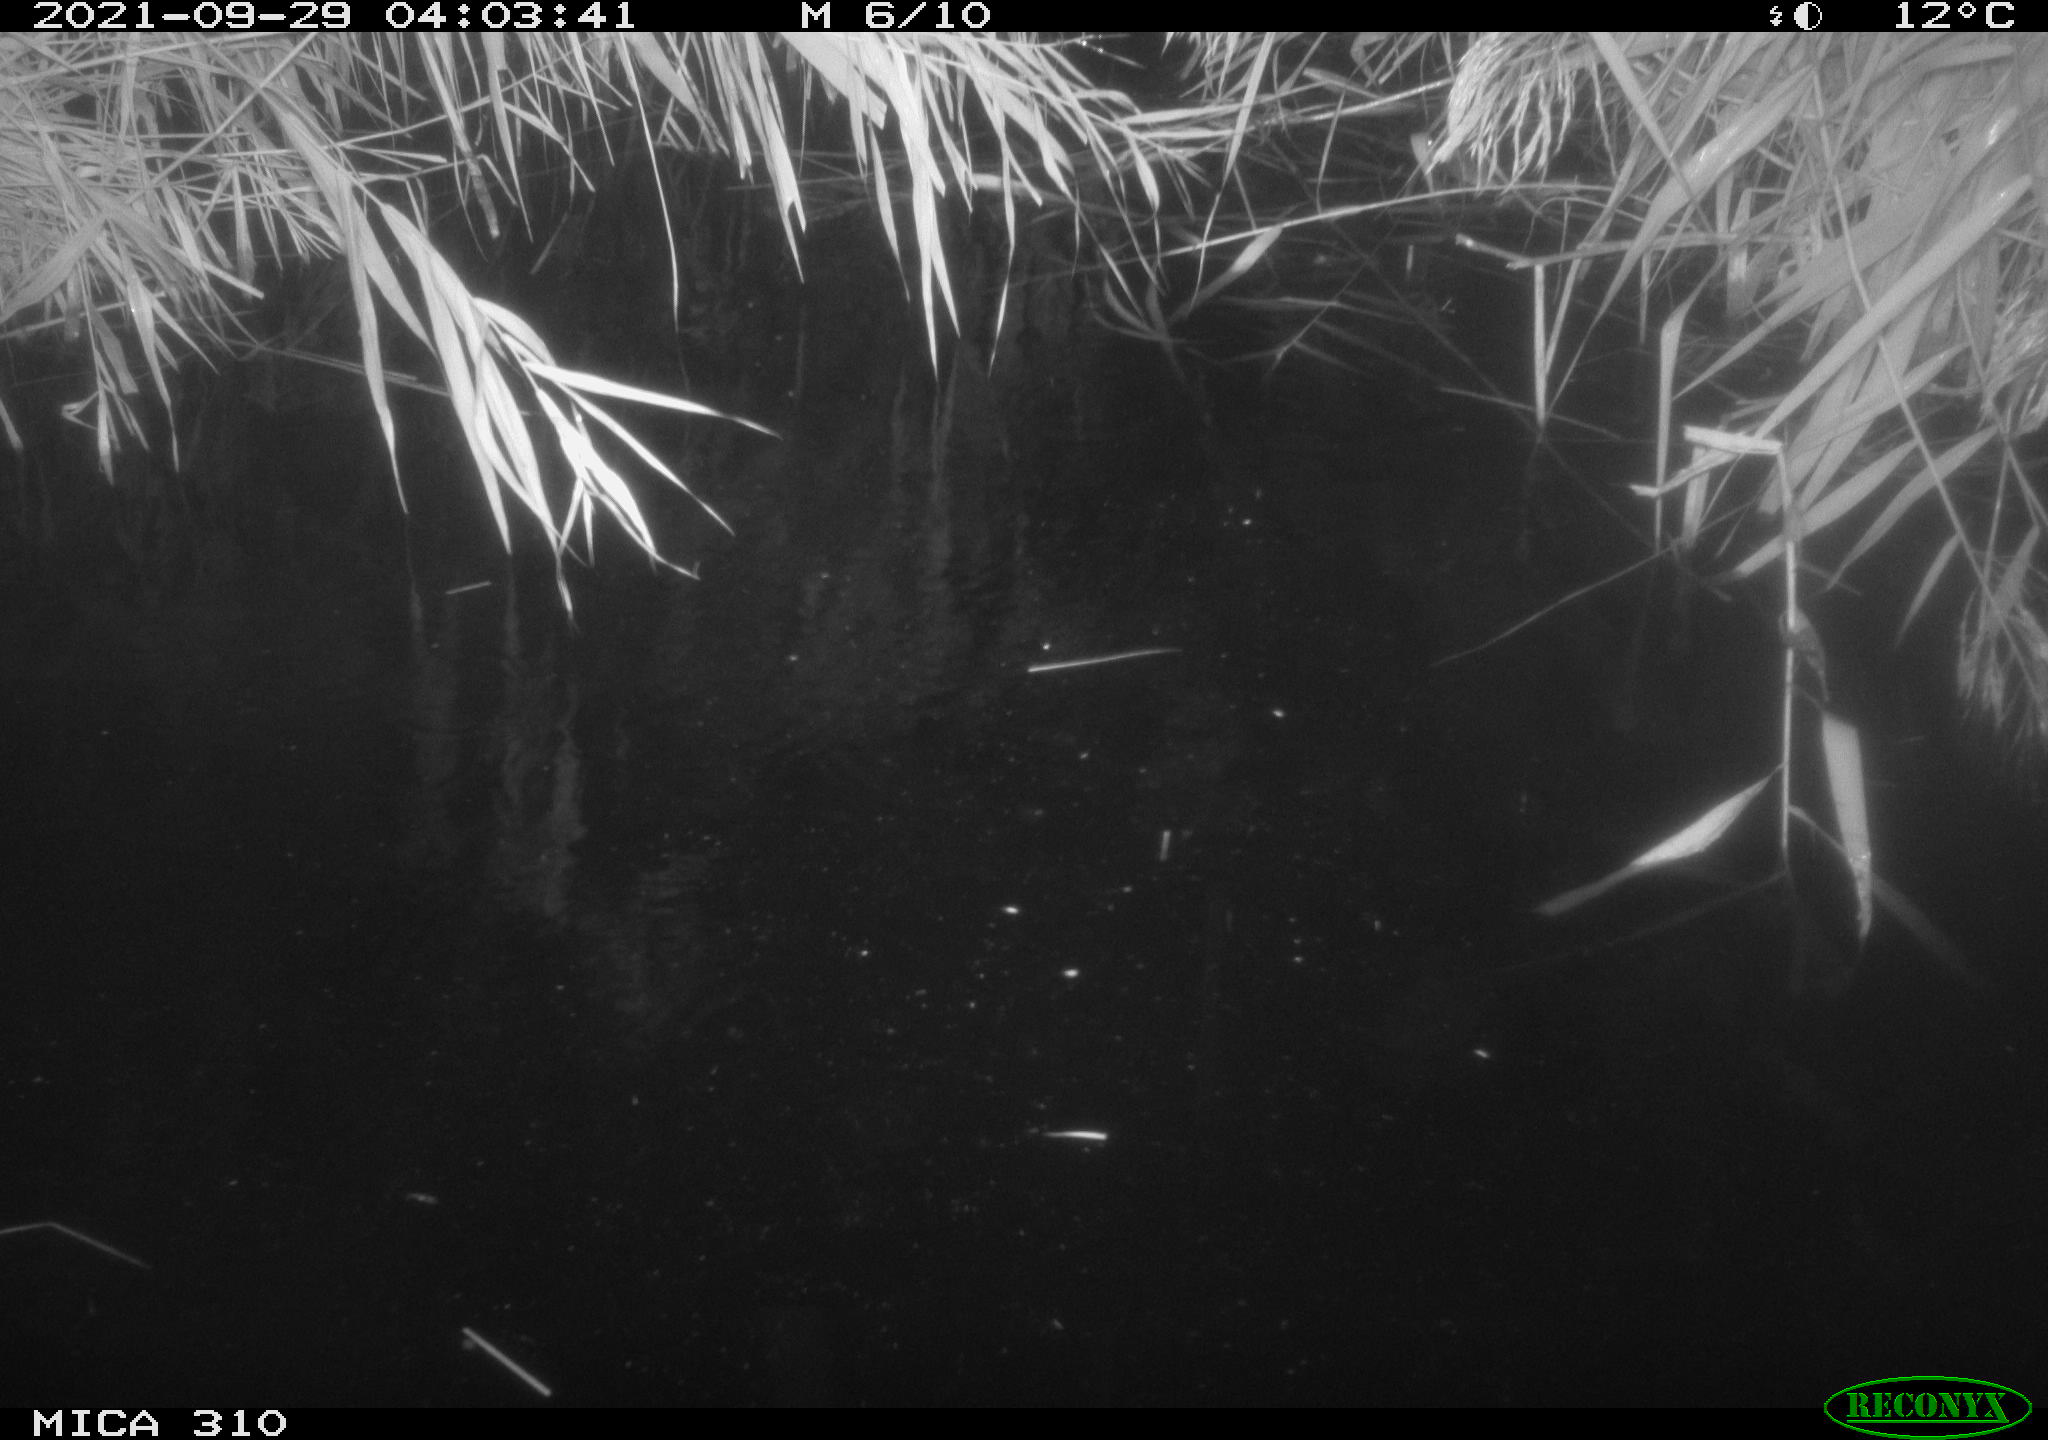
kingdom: Animalia
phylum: Chordata
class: Mammalia
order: Rodentia
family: Muridae
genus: Rattus
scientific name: Rattus norvegicus
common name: Brown rat
